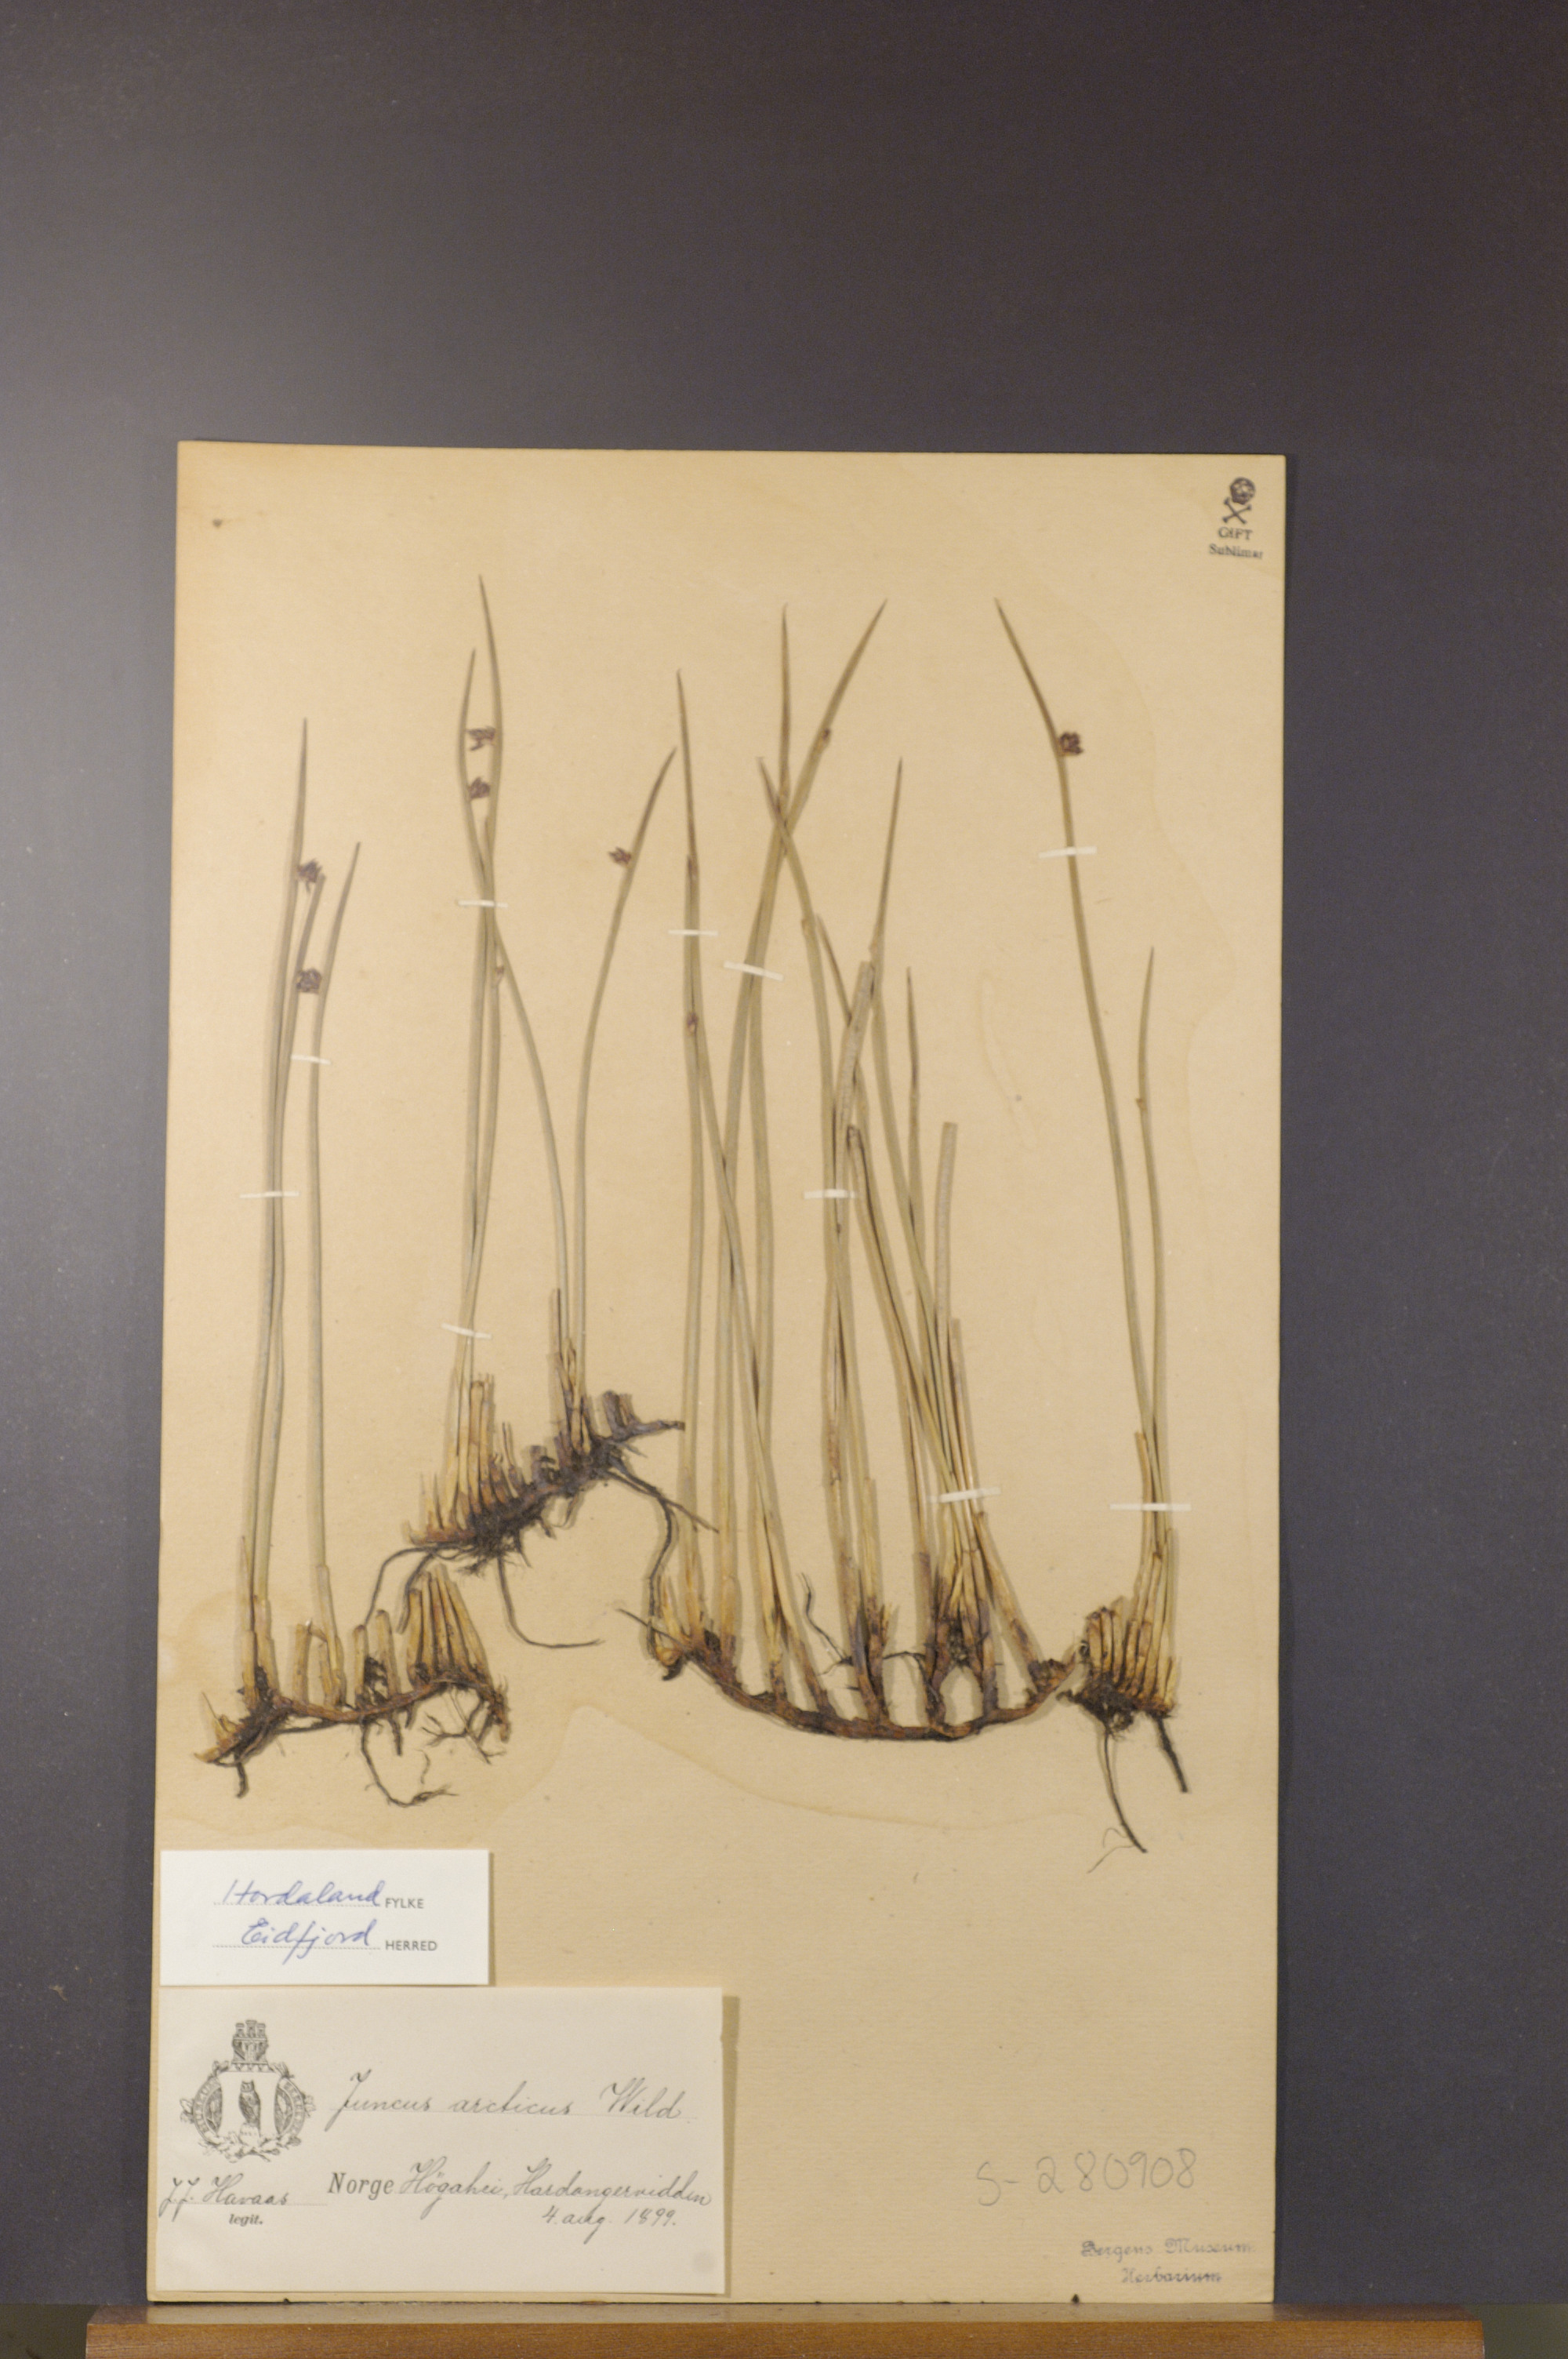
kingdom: Plantae
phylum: Tracheophyta
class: Liliopsida
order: Poales
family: Juncaceae
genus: Juncus
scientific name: Juncus arcticus
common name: Arctic rush
